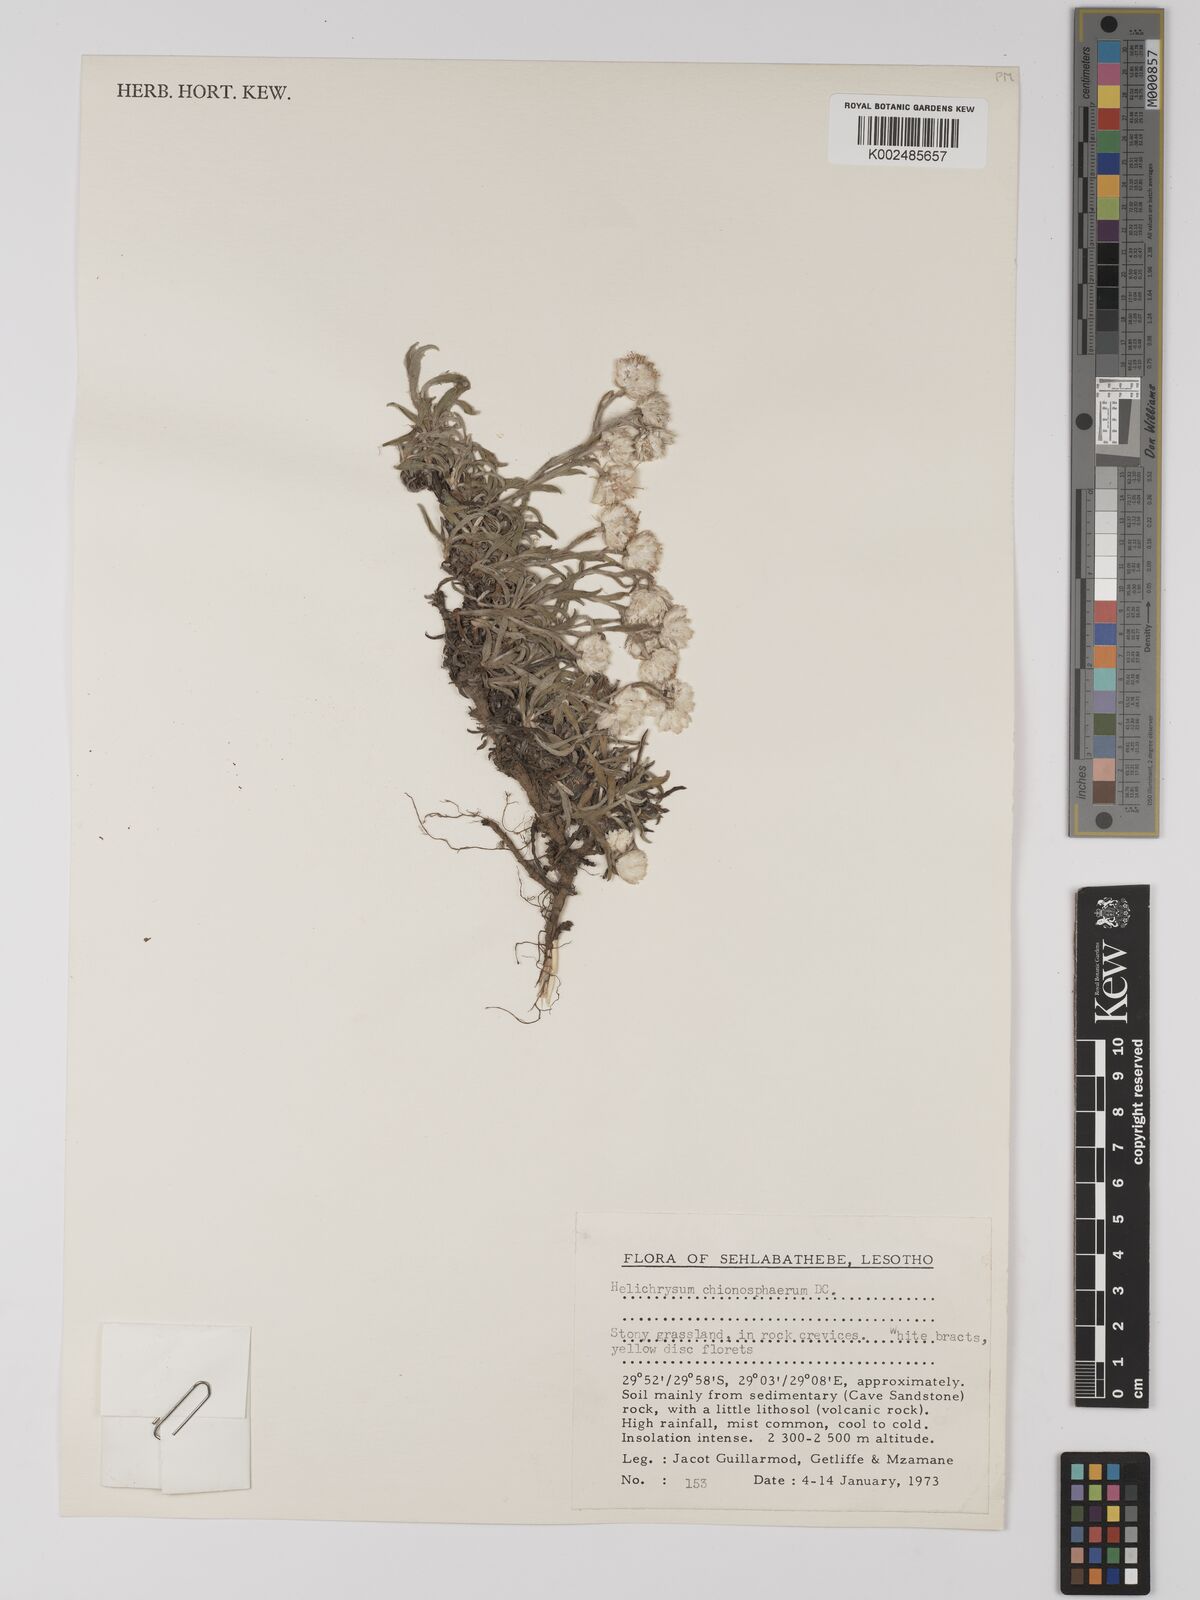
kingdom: Plantae
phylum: Tracheophyta
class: Magnoliopsida
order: Asterales
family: Asteraceae
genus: Helichrysum
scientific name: Helichrysum chionosphaerum
